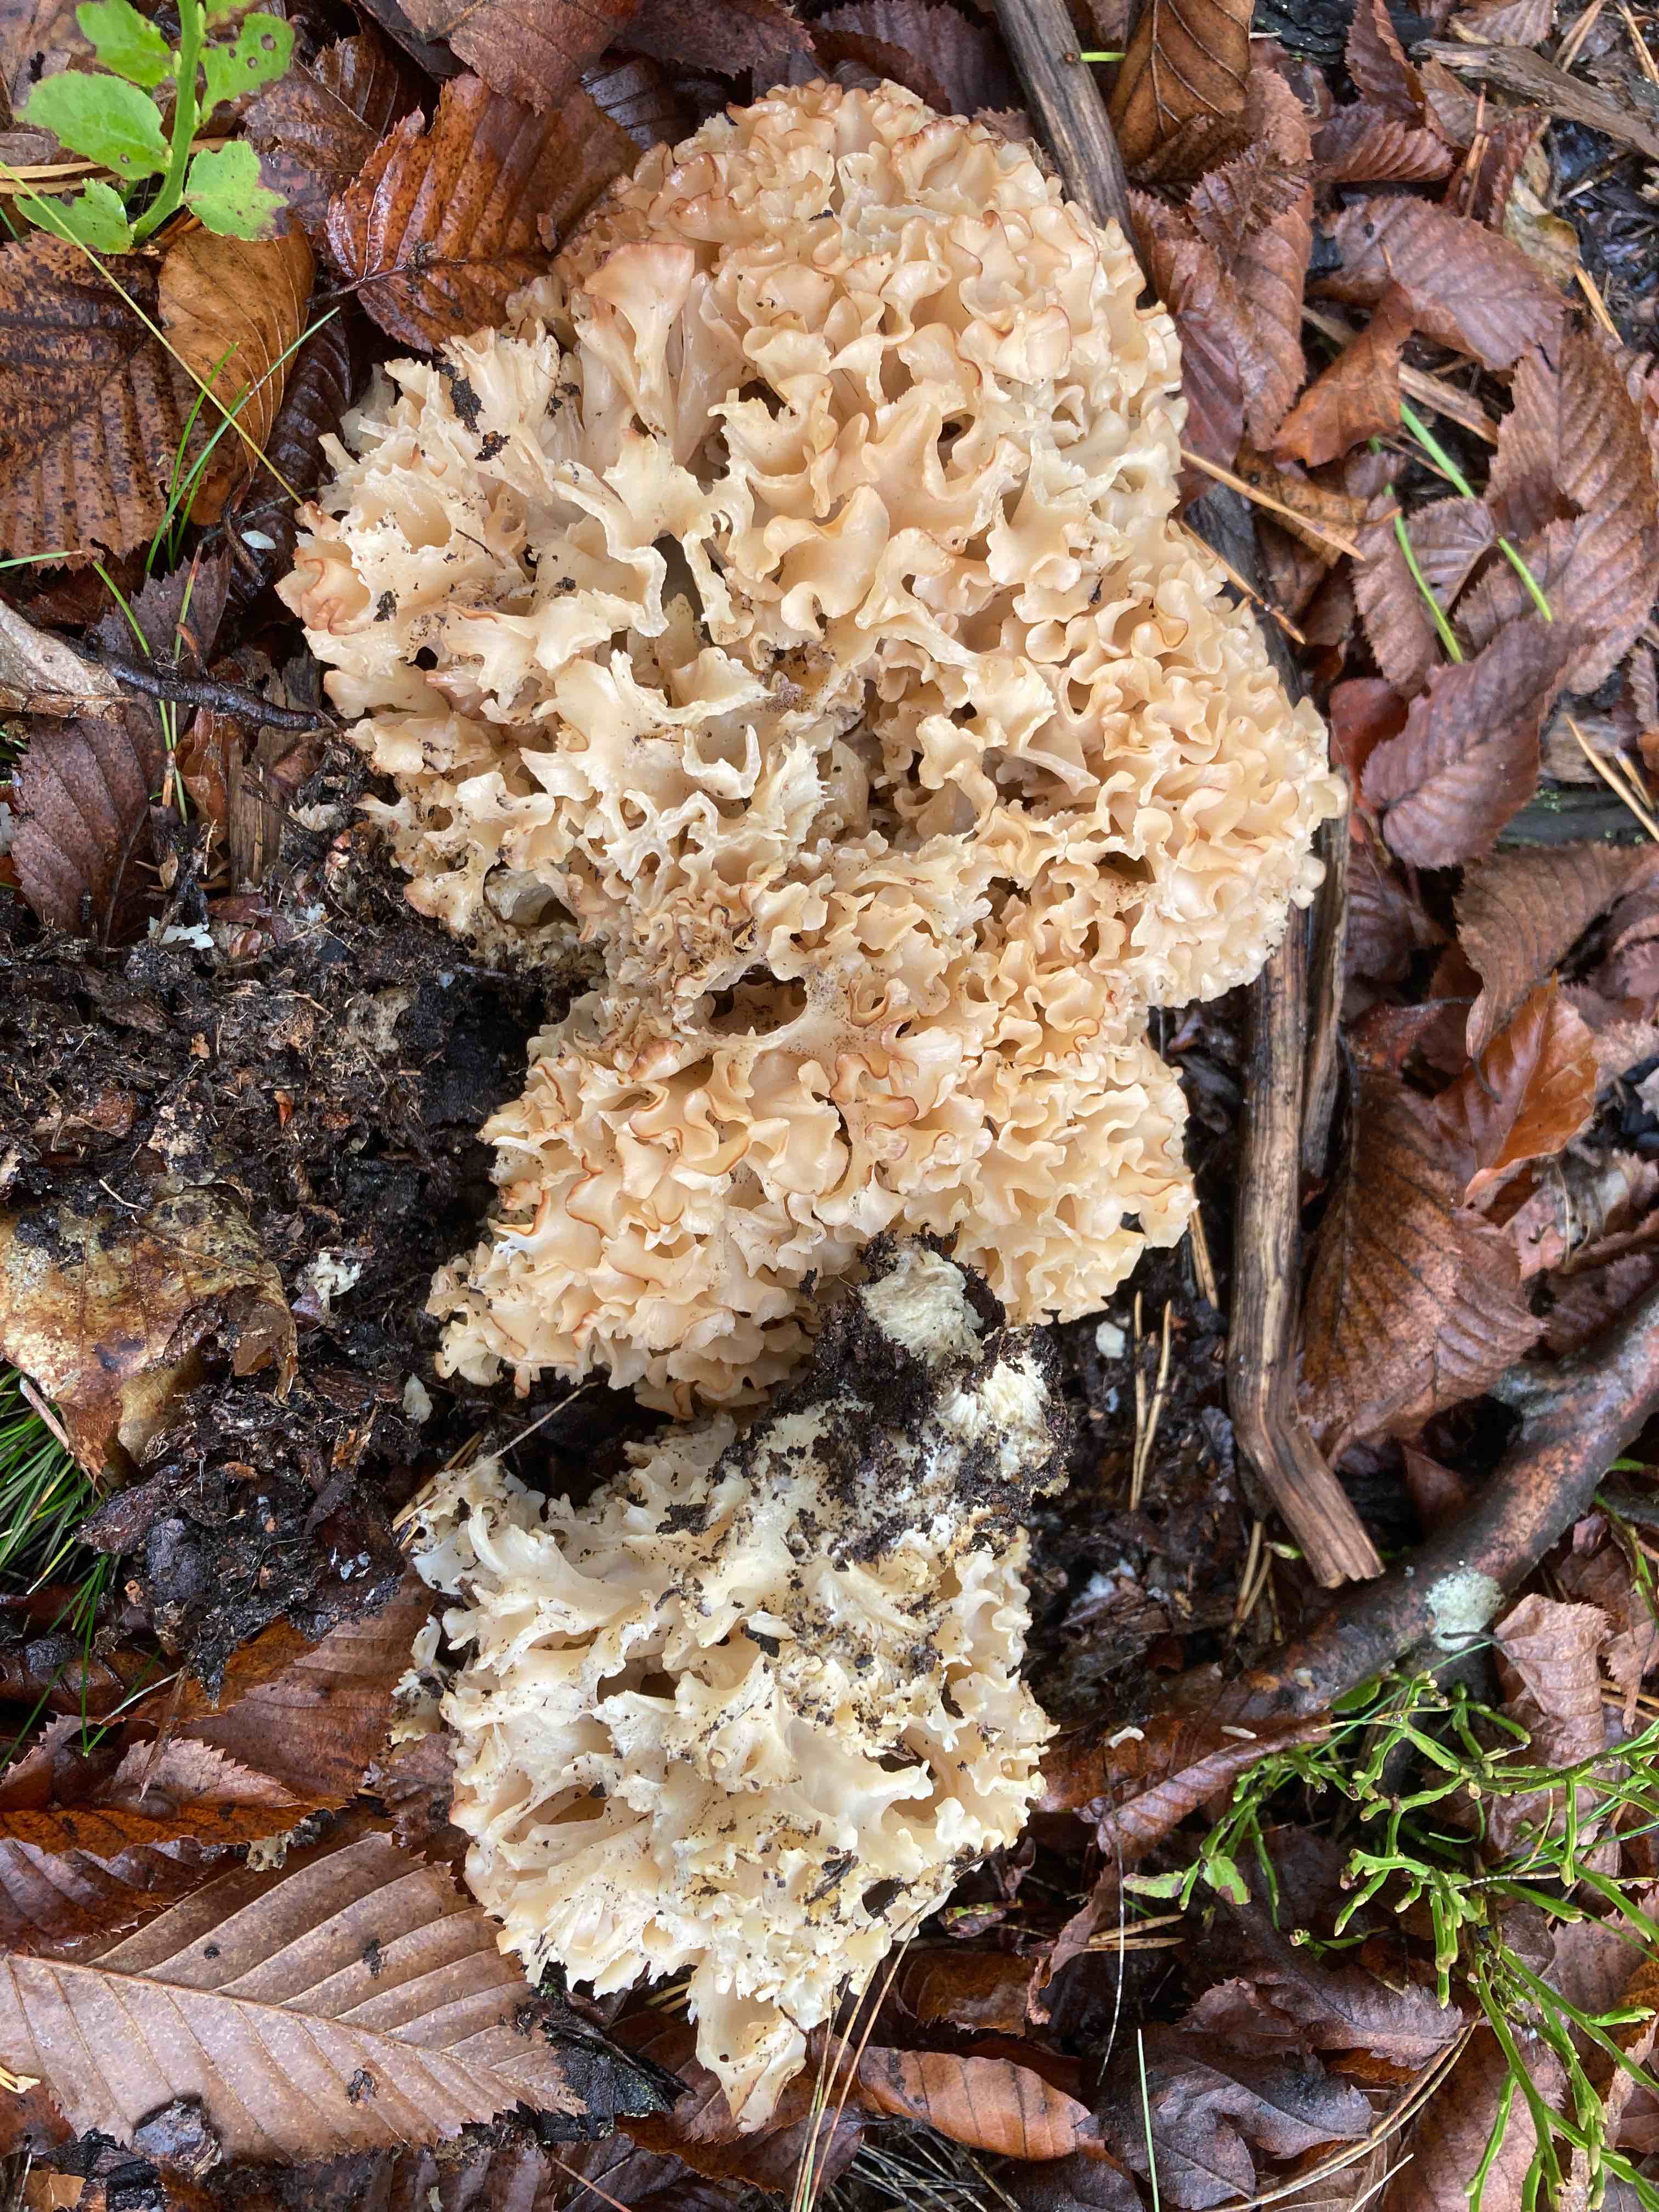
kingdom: Fungi
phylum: Basidiomycota
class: Agaricomycetes
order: Polyporales
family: Sparassidaceae
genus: Sparassis
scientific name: Sparassis crispa
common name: kruset blomkålssvamp
